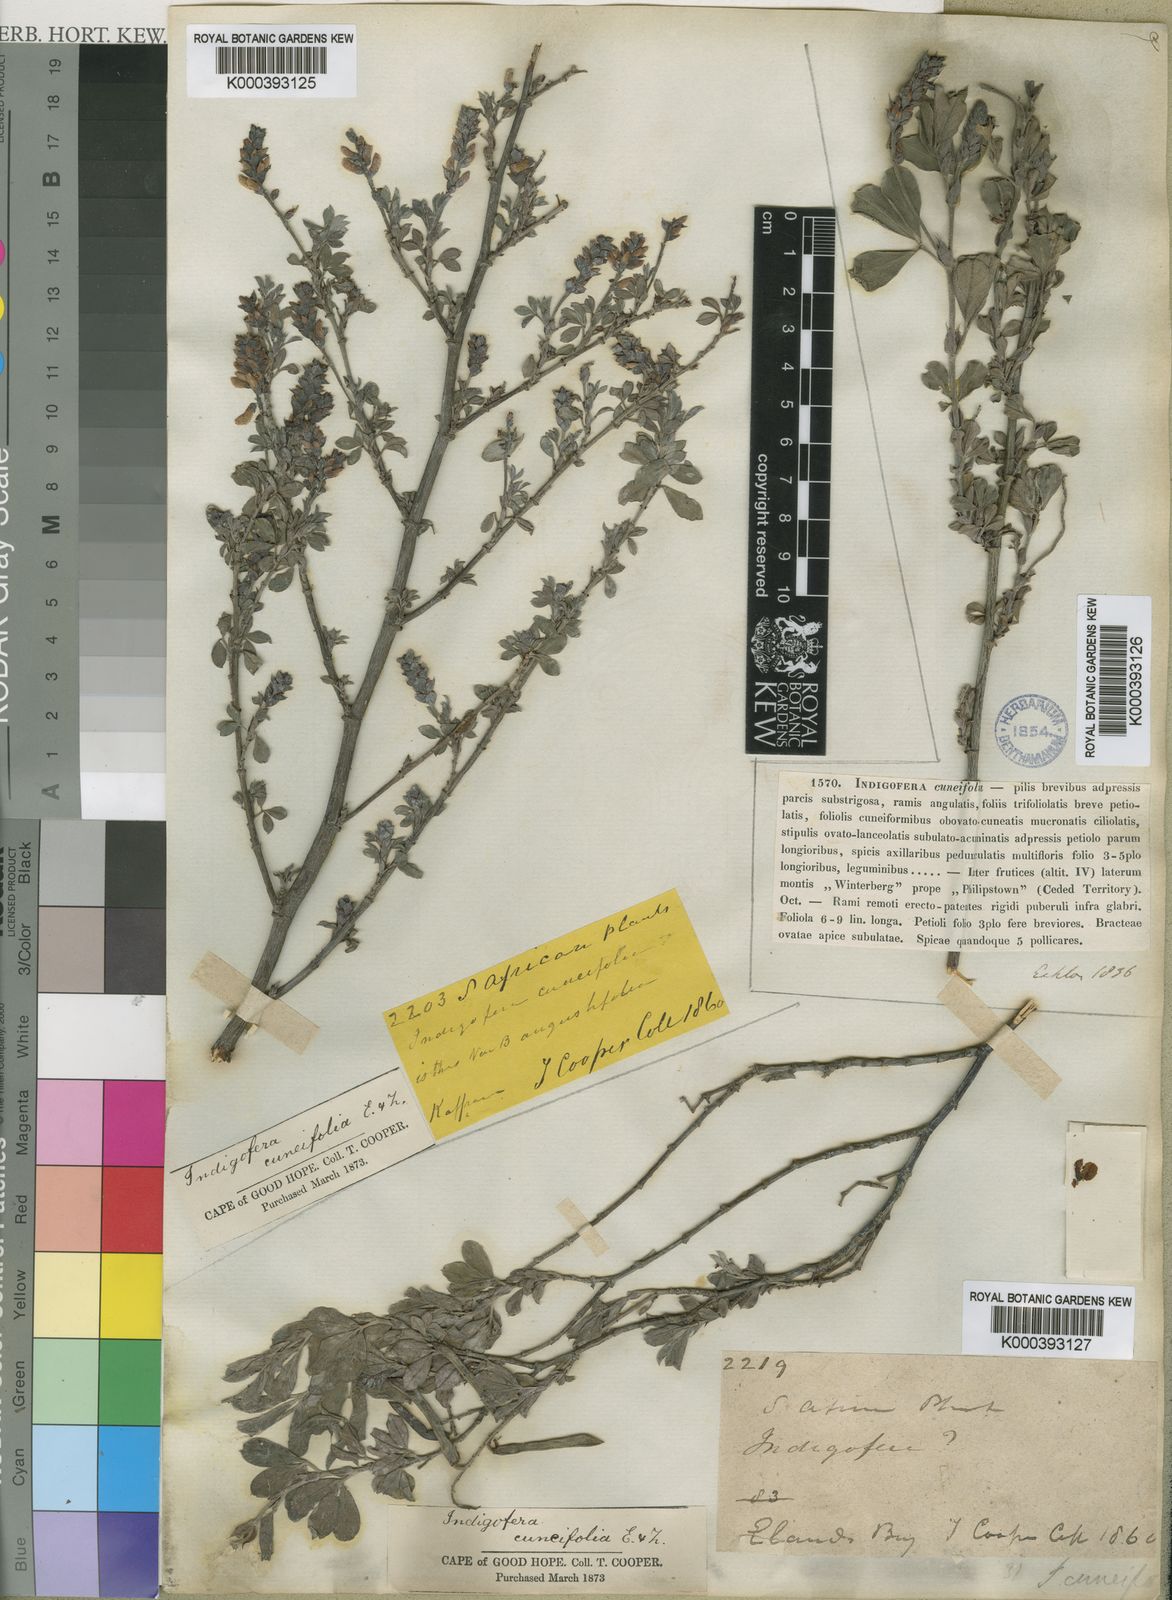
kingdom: Plantae
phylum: Tracheophyta
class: Magnoliopsida
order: Fabales
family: Fabaceae
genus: Indigofera
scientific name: Indigofera cuneifolia
